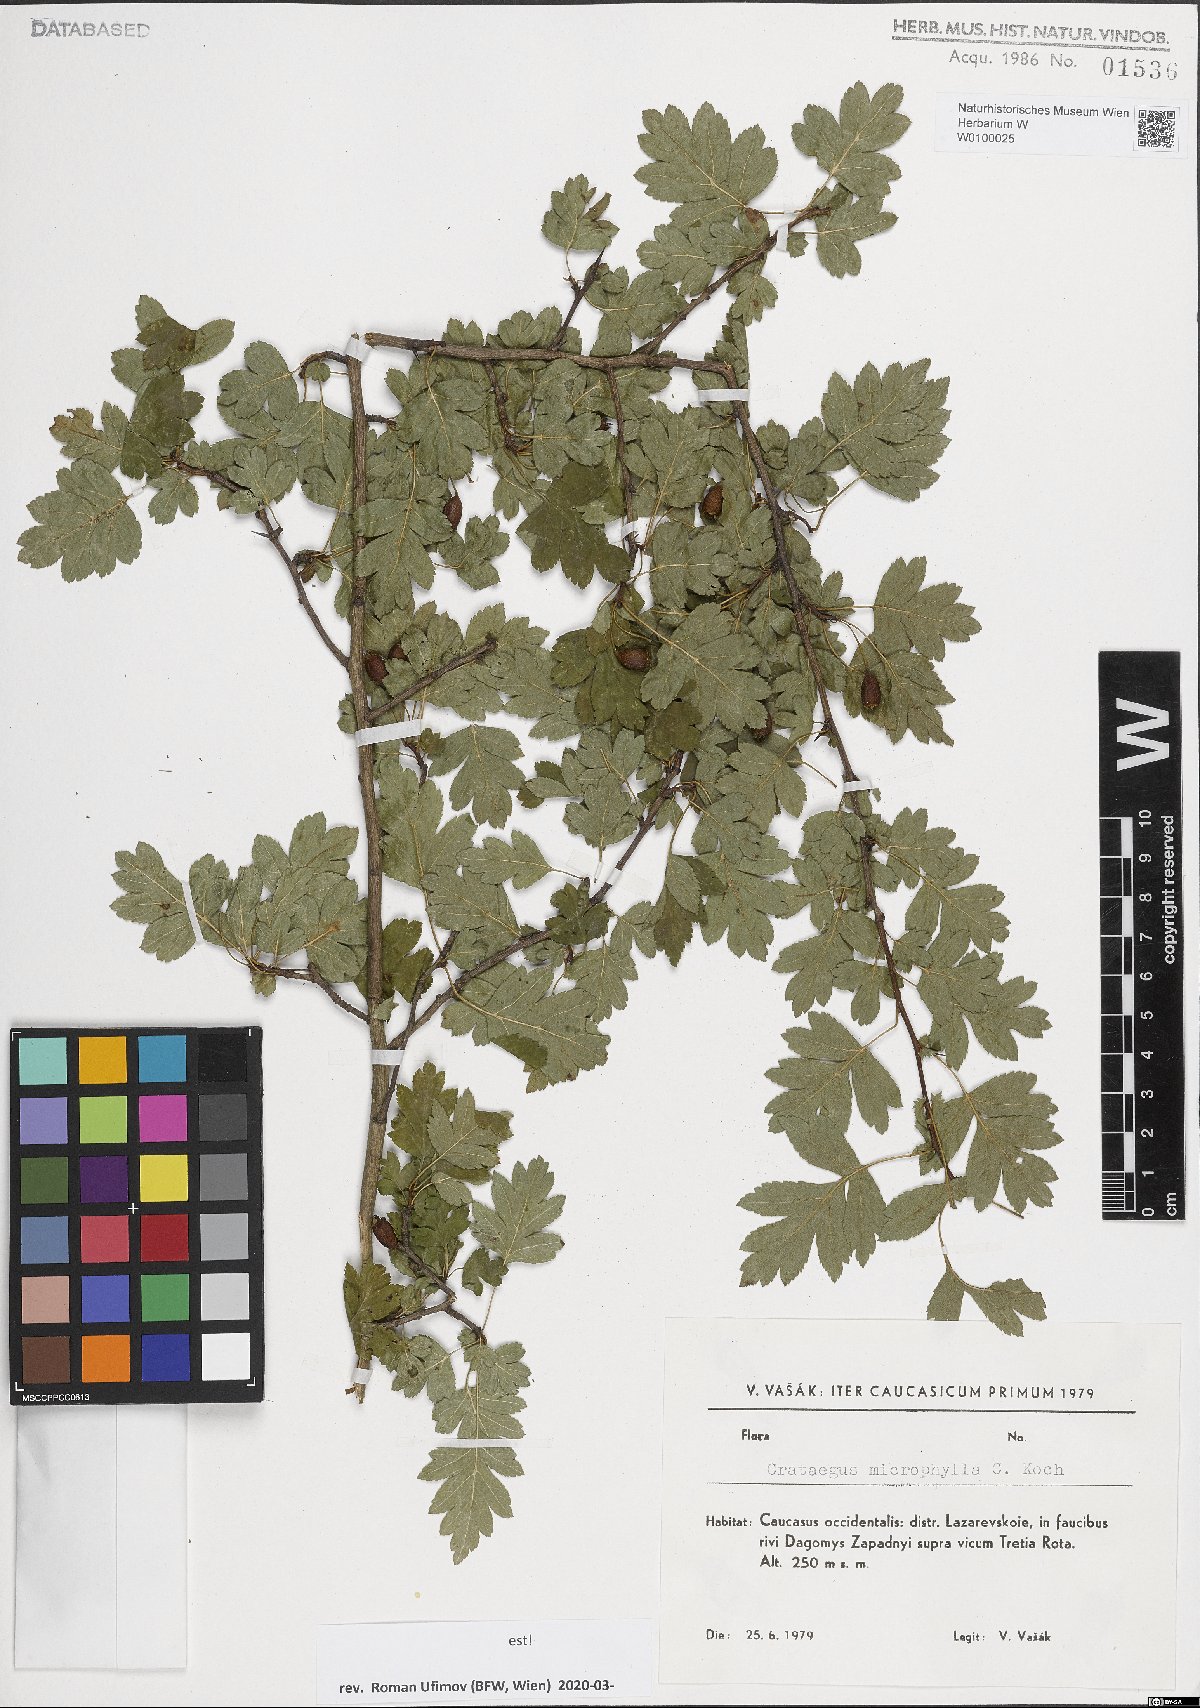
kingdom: Plantae
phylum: Tracheophyta
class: Magnoliopsida
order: Rosales
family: Rosaceae
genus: Crataegus
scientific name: Crataegus microphylla
